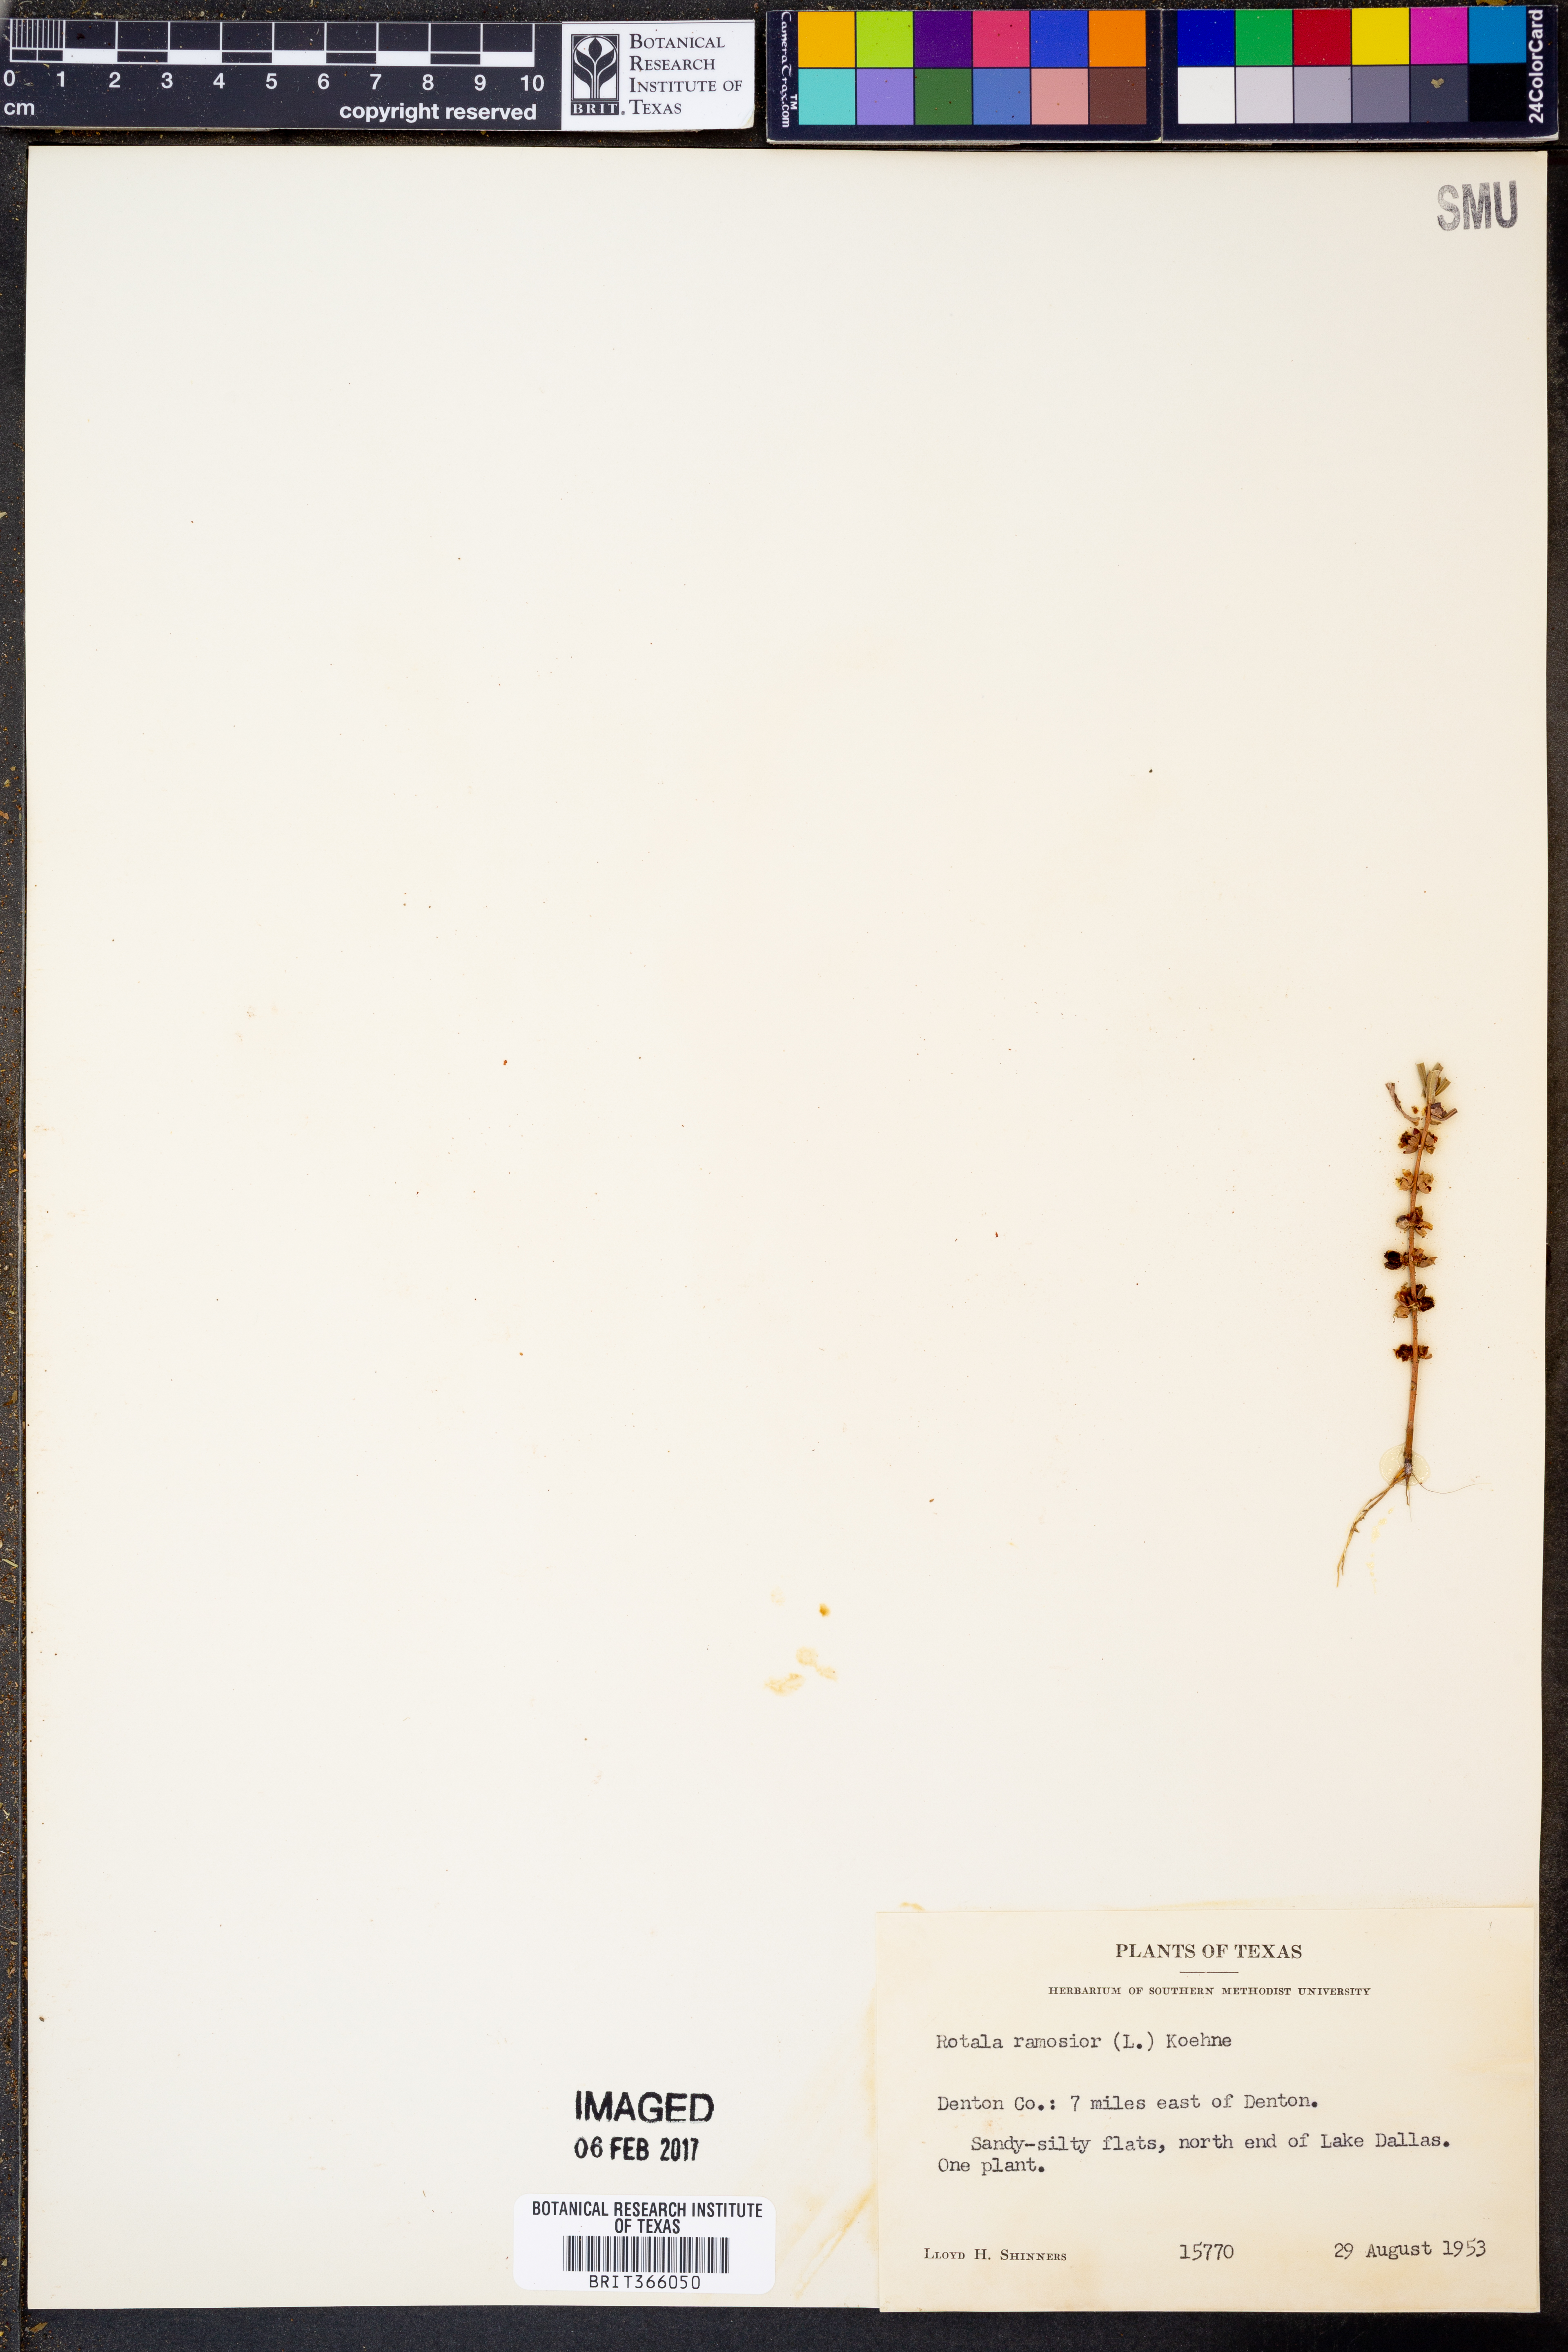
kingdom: Plantae
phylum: Tracheophyta
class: Magnoliopsida
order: Myrtales
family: Lythraceae
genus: Rotala
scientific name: Rotala ramosior
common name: Lowland rotala
